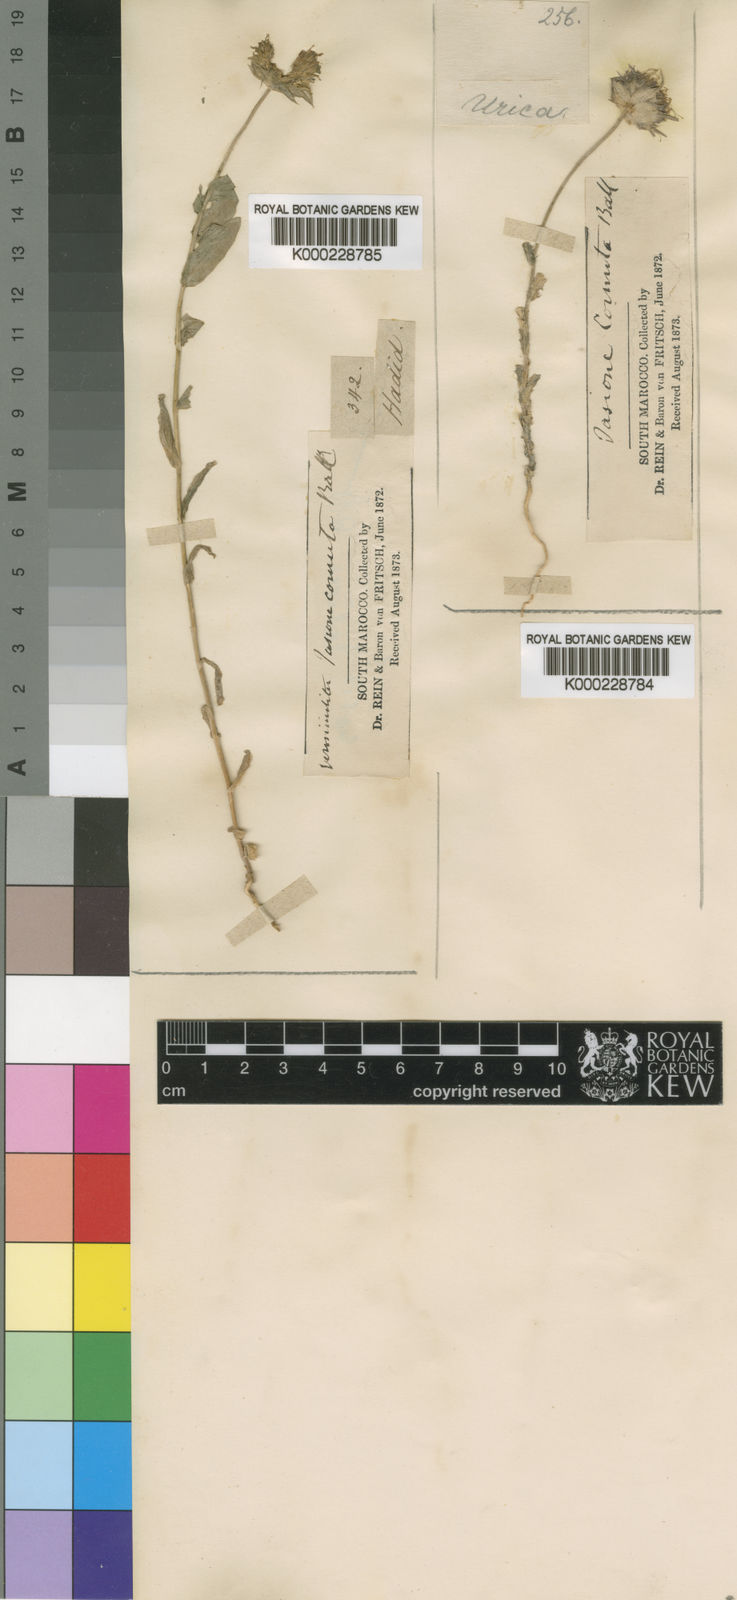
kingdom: Plantae
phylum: Tracheophyta
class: Magnoliopsida
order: Asterales
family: Campanulaceae
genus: Jasione
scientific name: Jasione montana
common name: Sheep's-bit
